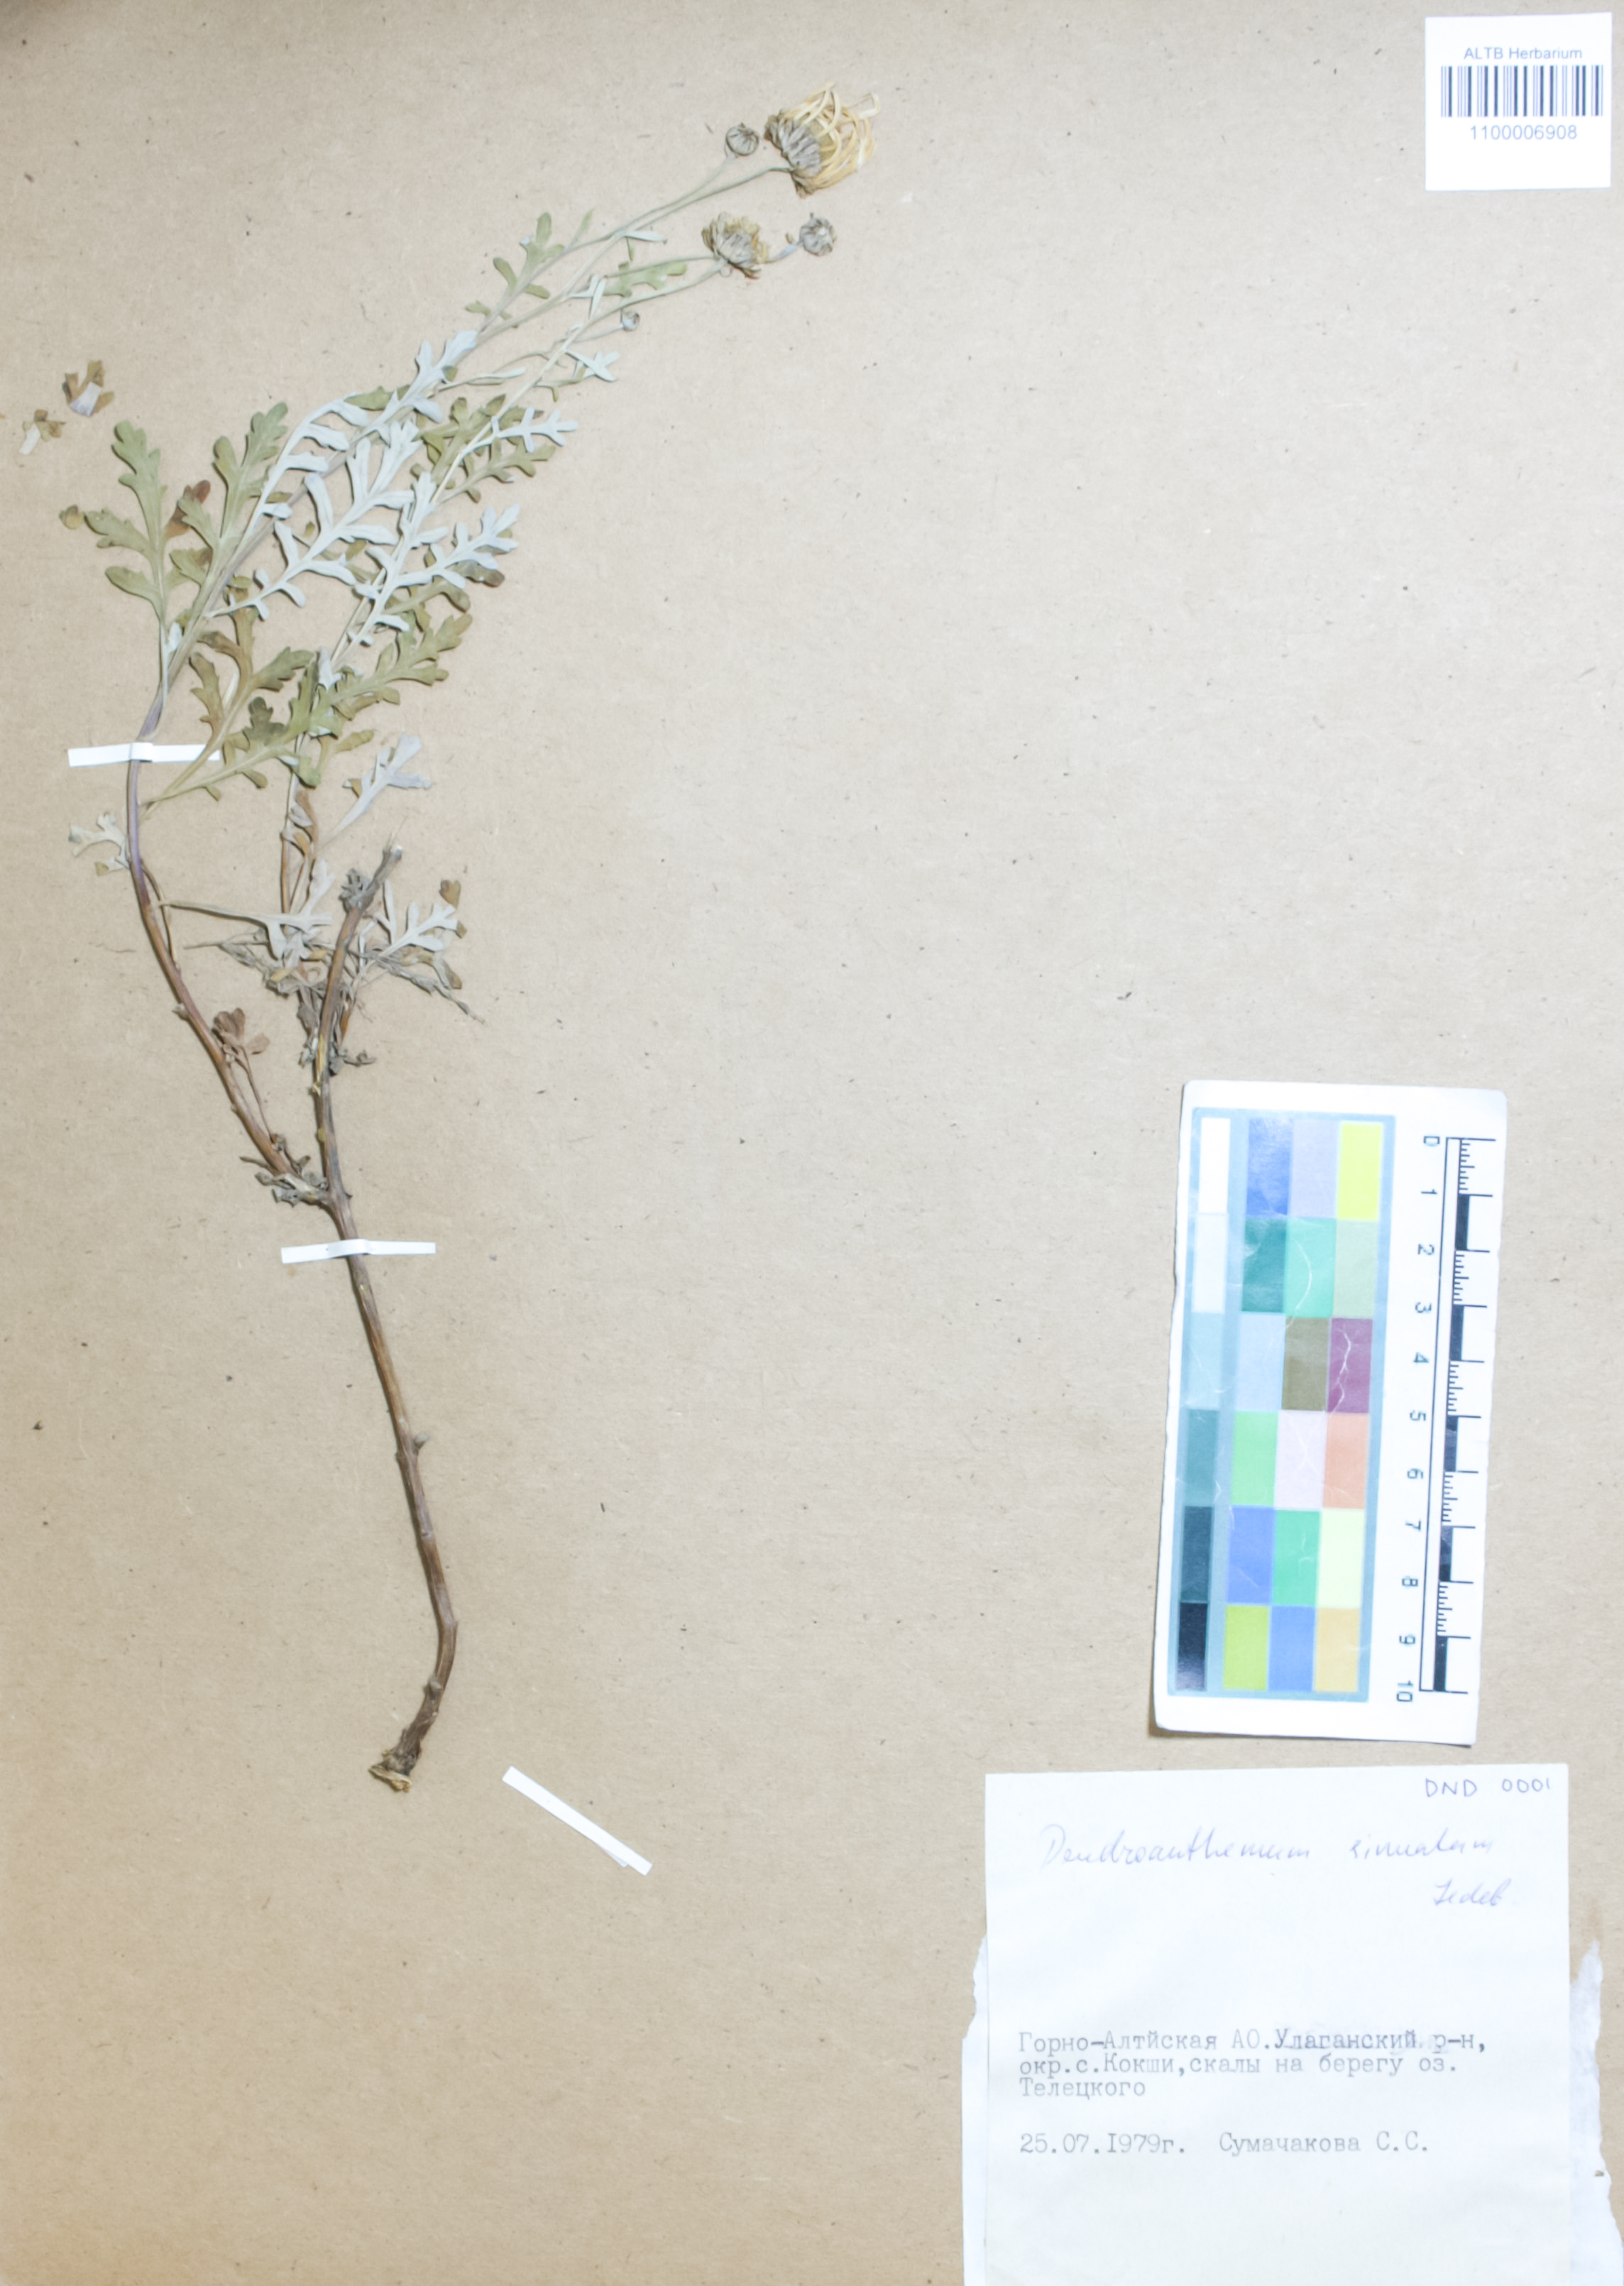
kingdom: Plantae
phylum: Tracheophyta
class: Magnoliopsida
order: Asterales
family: Asteraceae
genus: Chrysanthemum
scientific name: Chrysanthemum sinuatum
